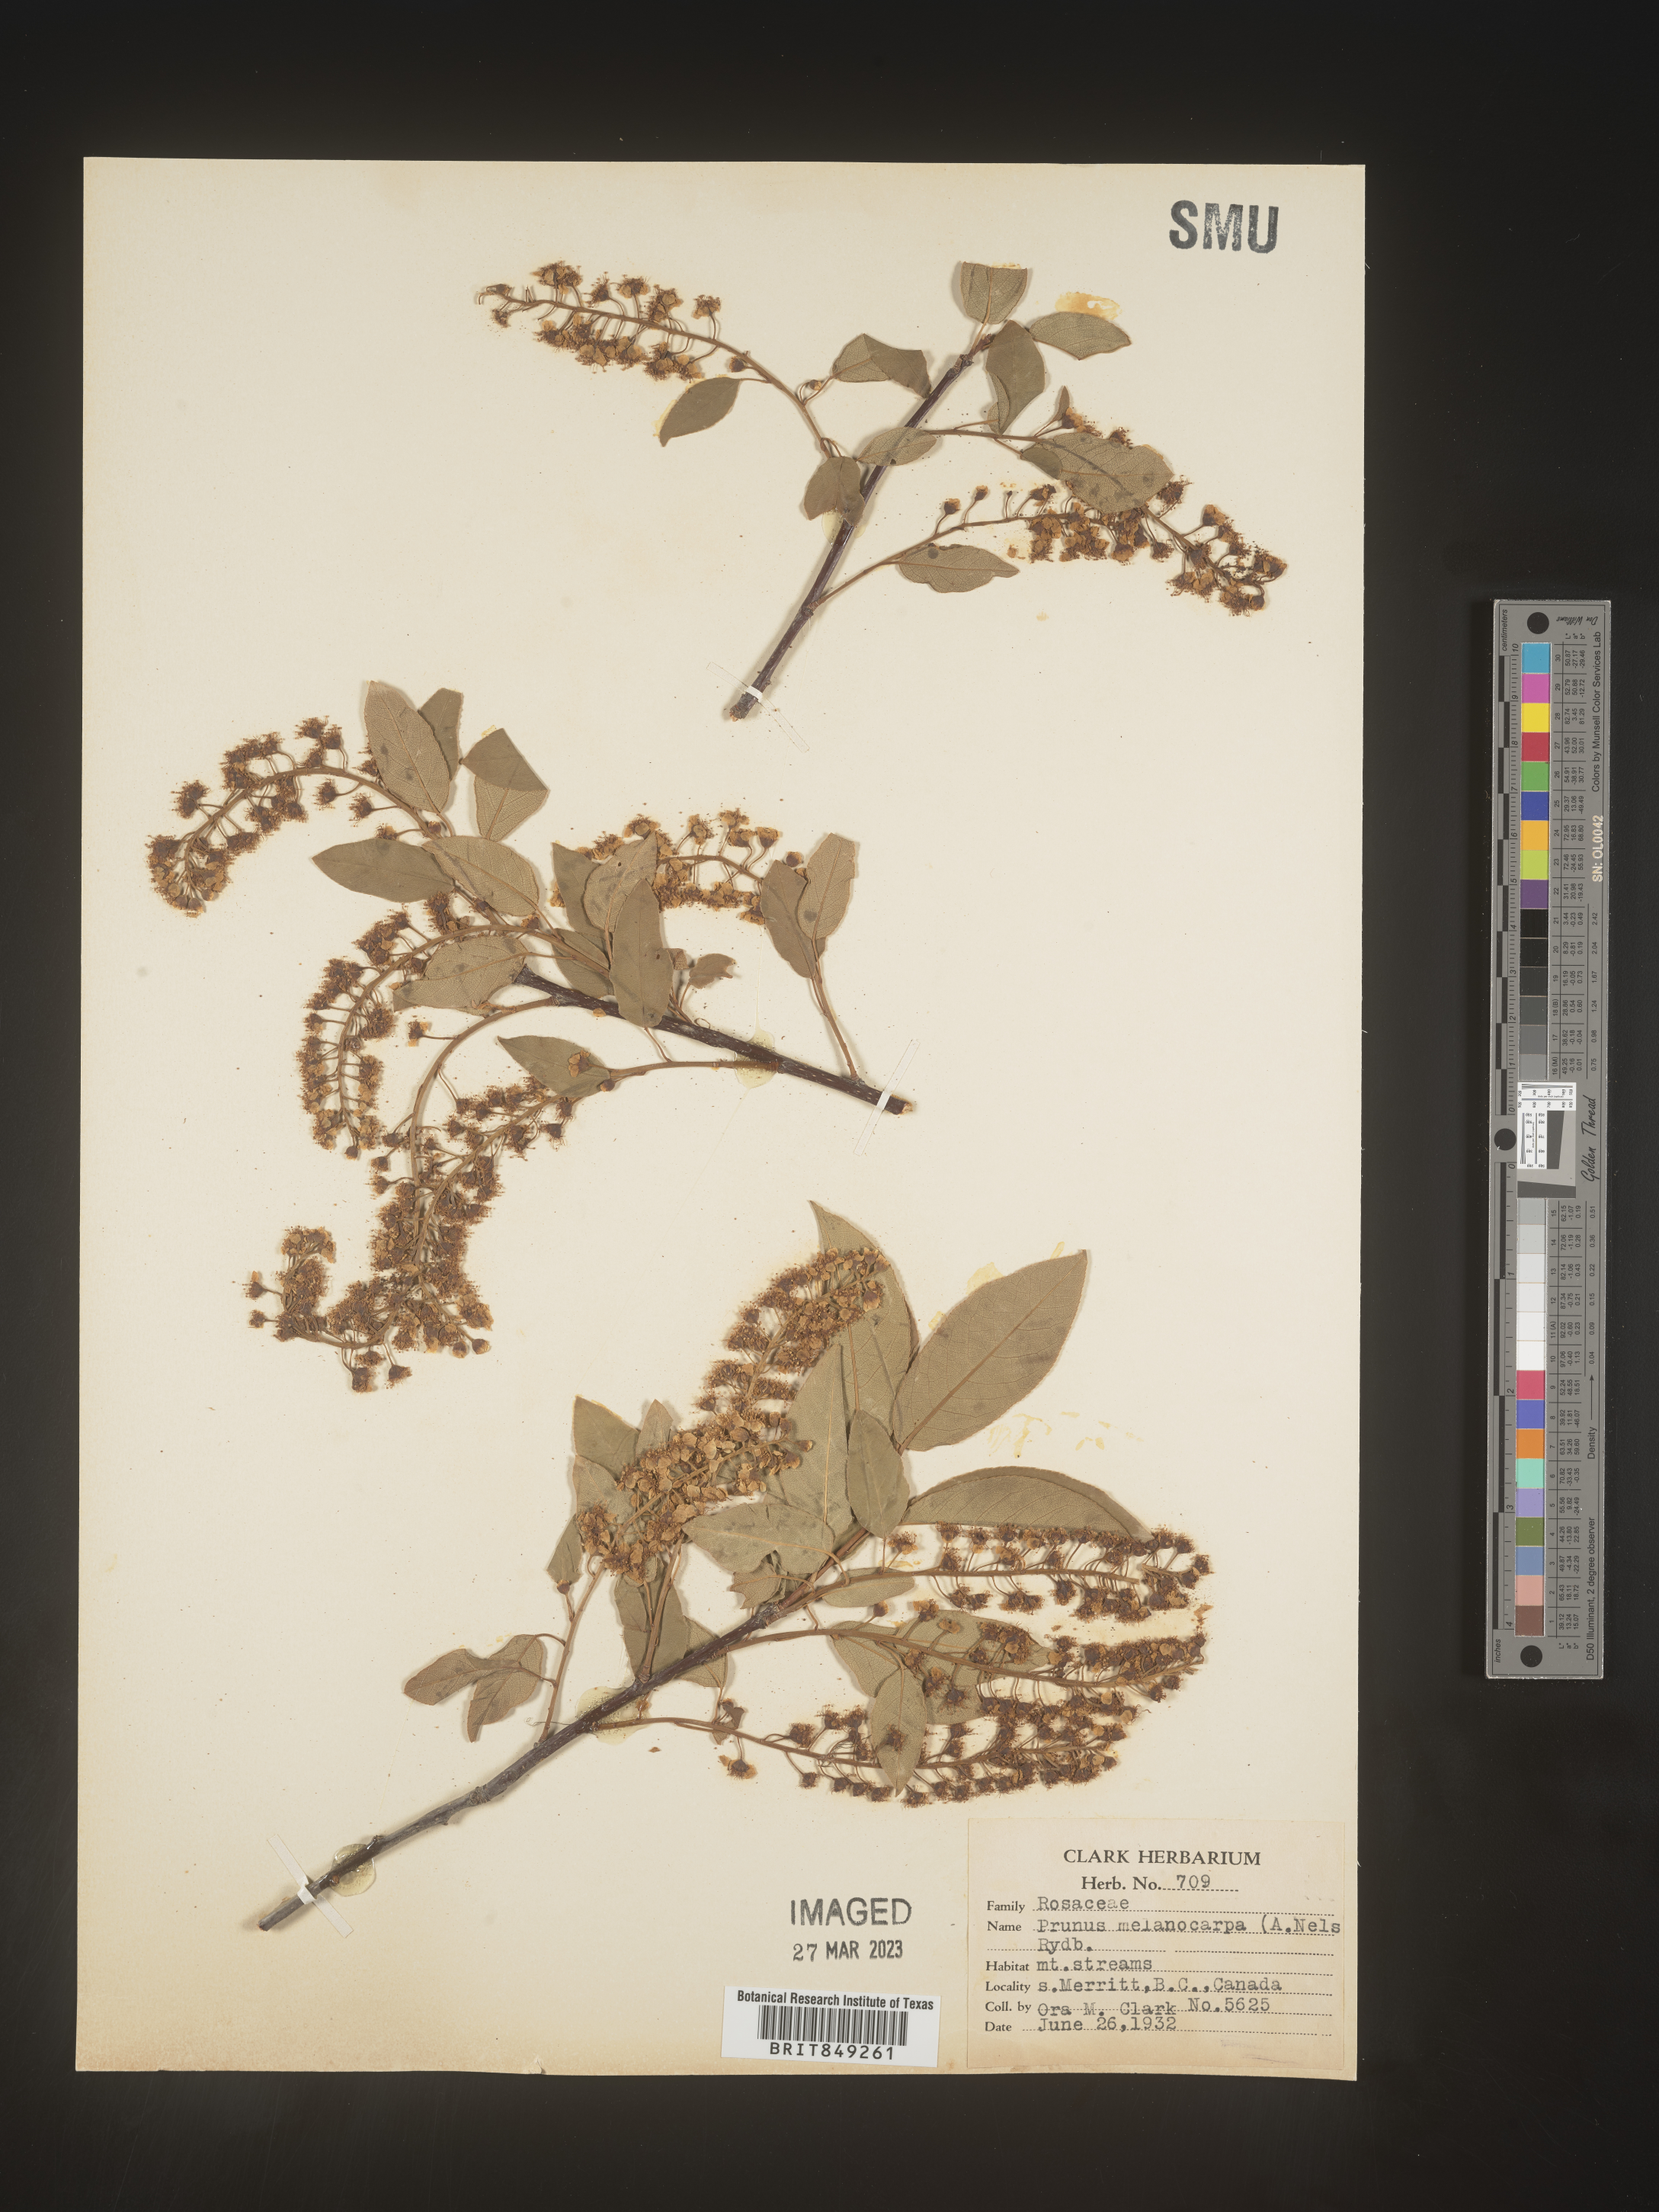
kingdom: Plantae
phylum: Tracheophyta
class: Magnoliopsida
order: Rosales
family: Rosaceae
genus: Prunus
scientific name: Prunus
